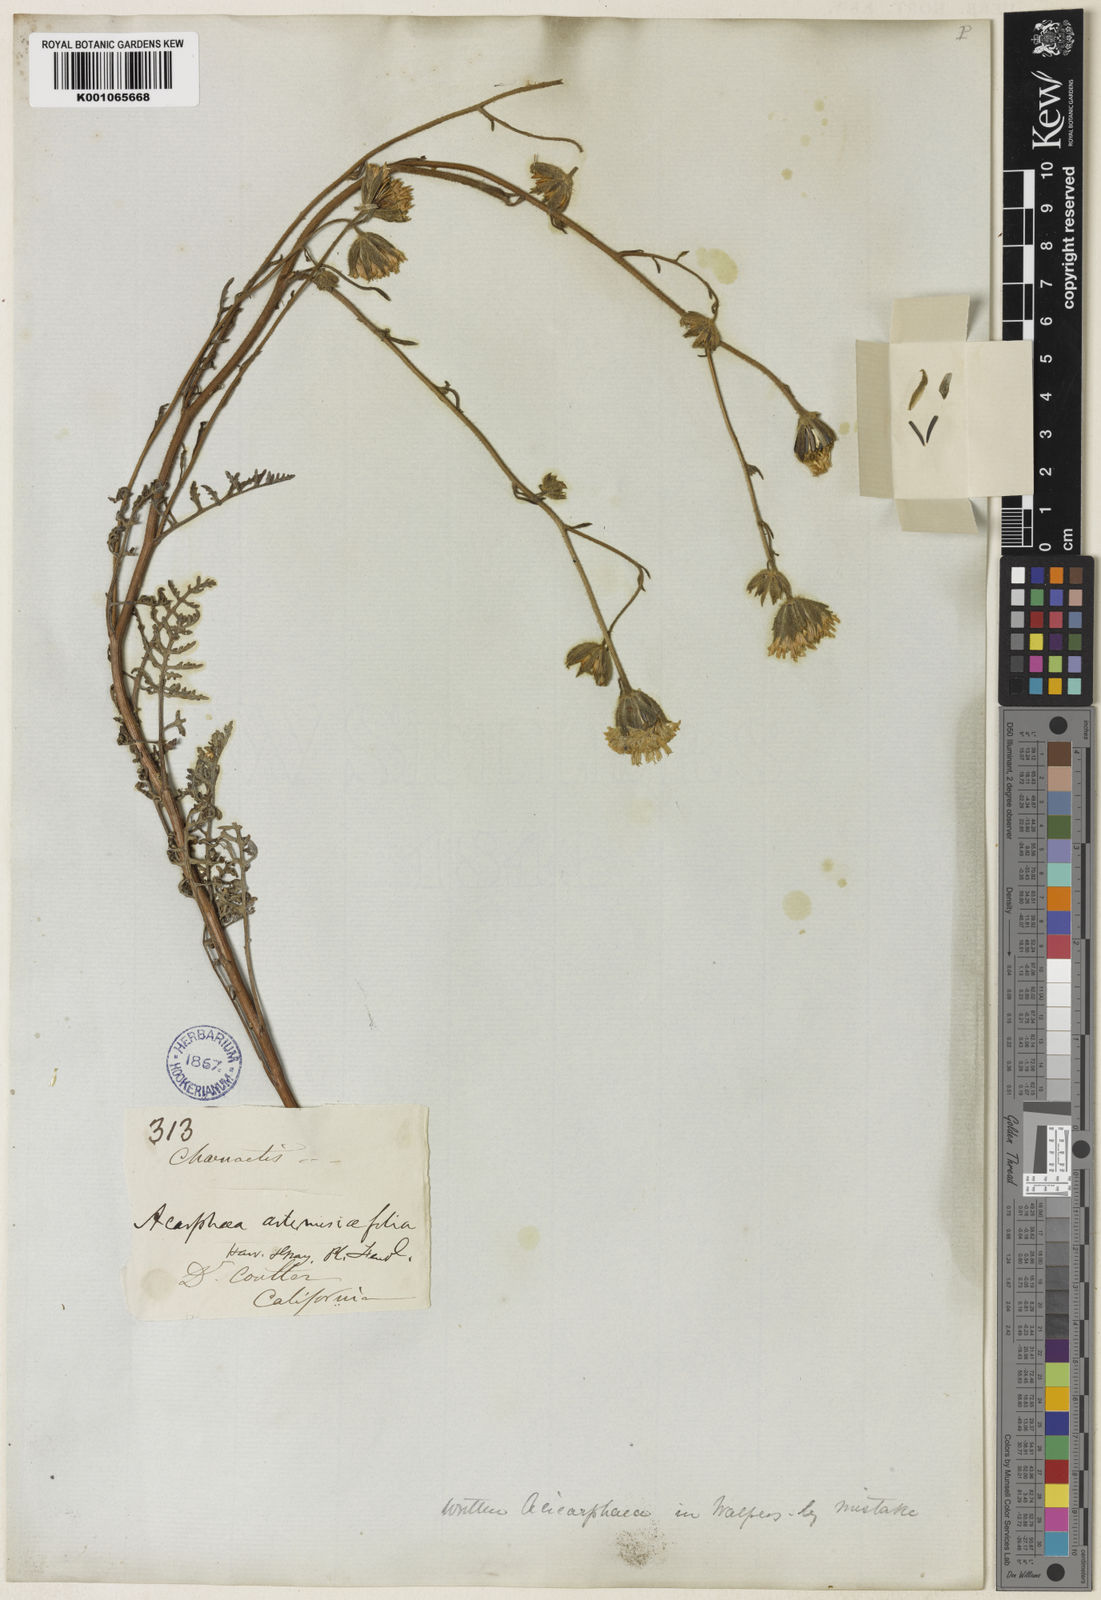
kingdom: Plantae
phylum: Tracheophyta
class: Magnoliopsida
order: Asterales
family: Asteraceae
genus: Chaenactis
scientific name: Chaenactis artemisiifolia
